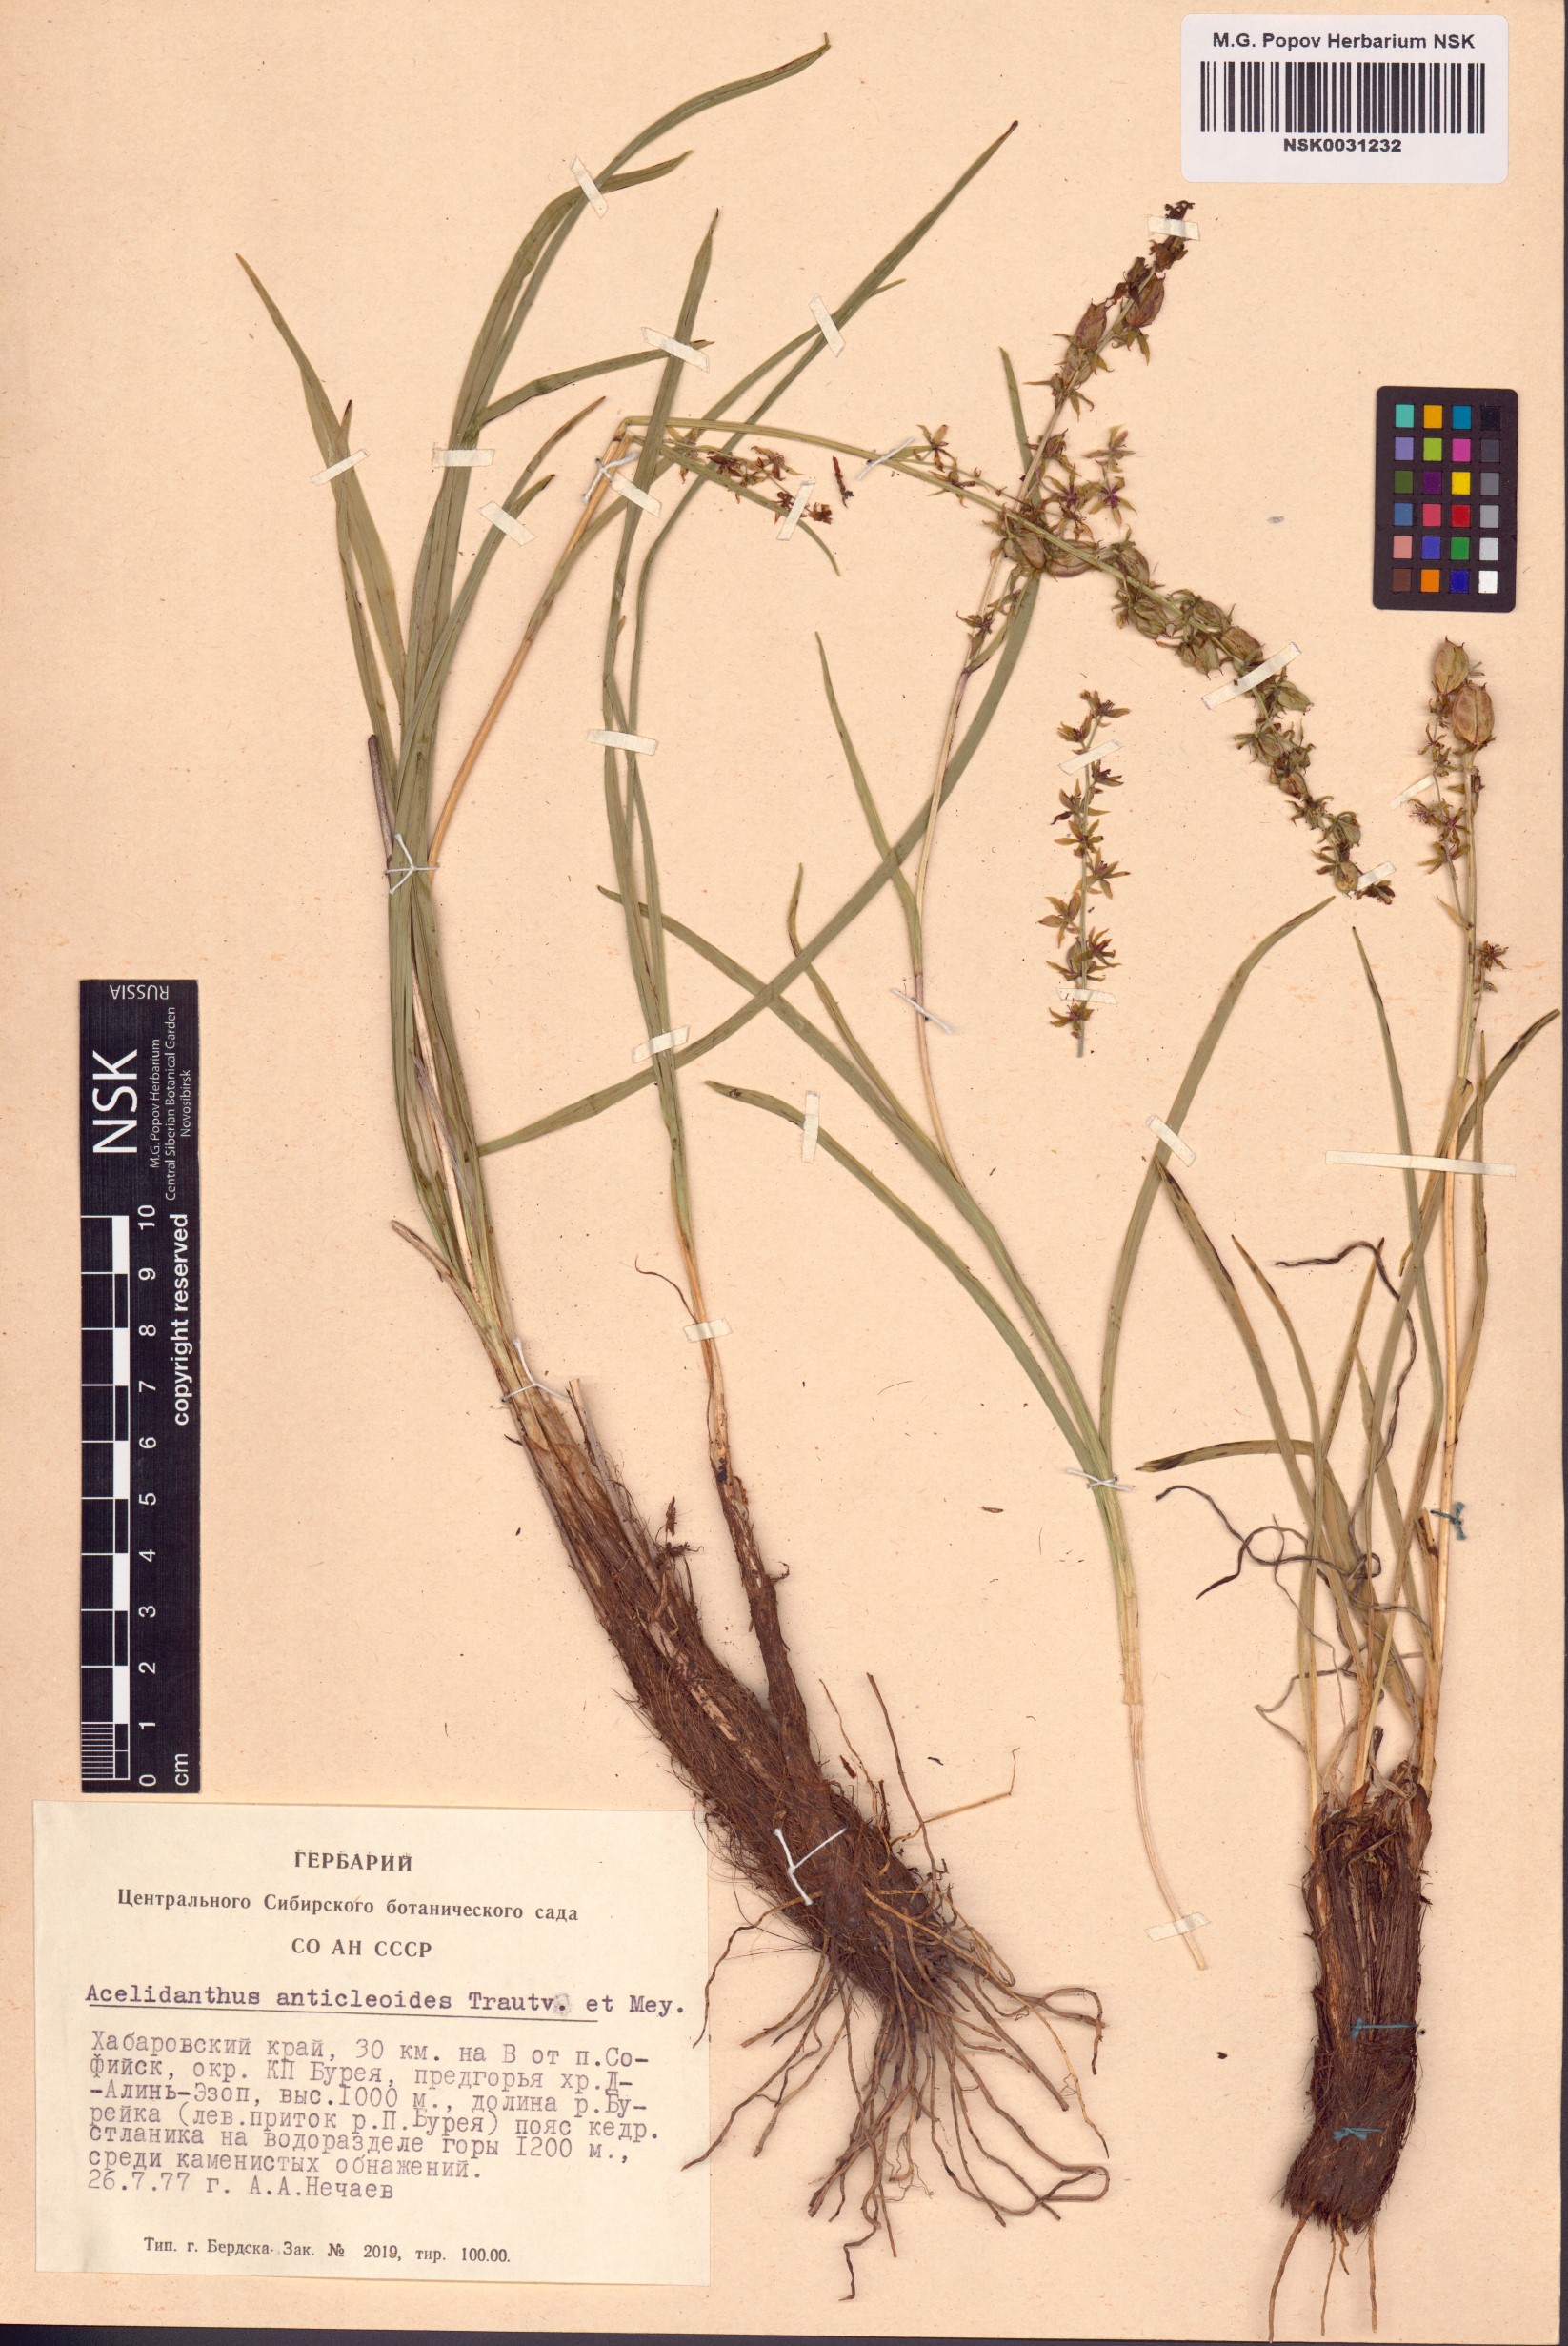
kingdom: Plantae
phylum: Tracheophyta
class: Liliopsida
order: Liliales
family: Melanthiaceae
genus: Veratrum
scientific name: Veratrum anticleoides
